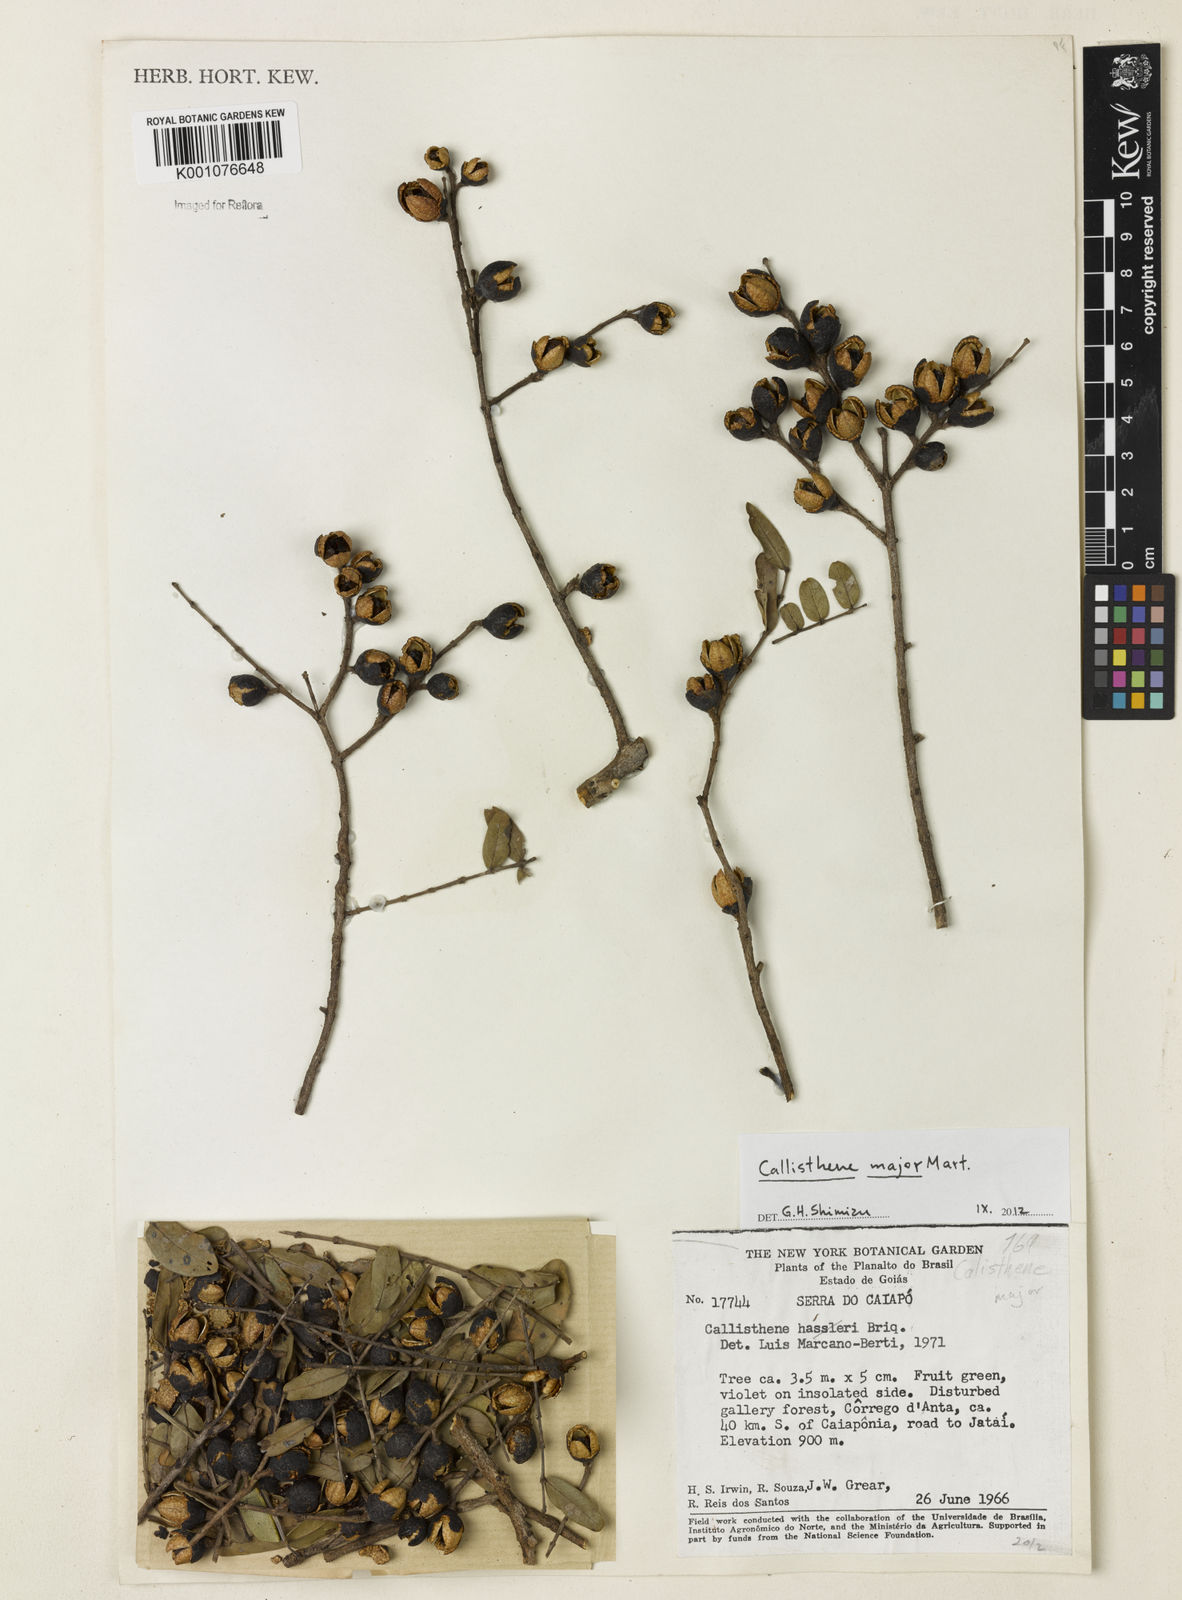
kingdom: Plantae
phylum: Tracheophyta
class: Magnoliopsida
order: Myrtales
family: Vochysiaceae
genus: Callisthene
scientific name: Callisthene major
